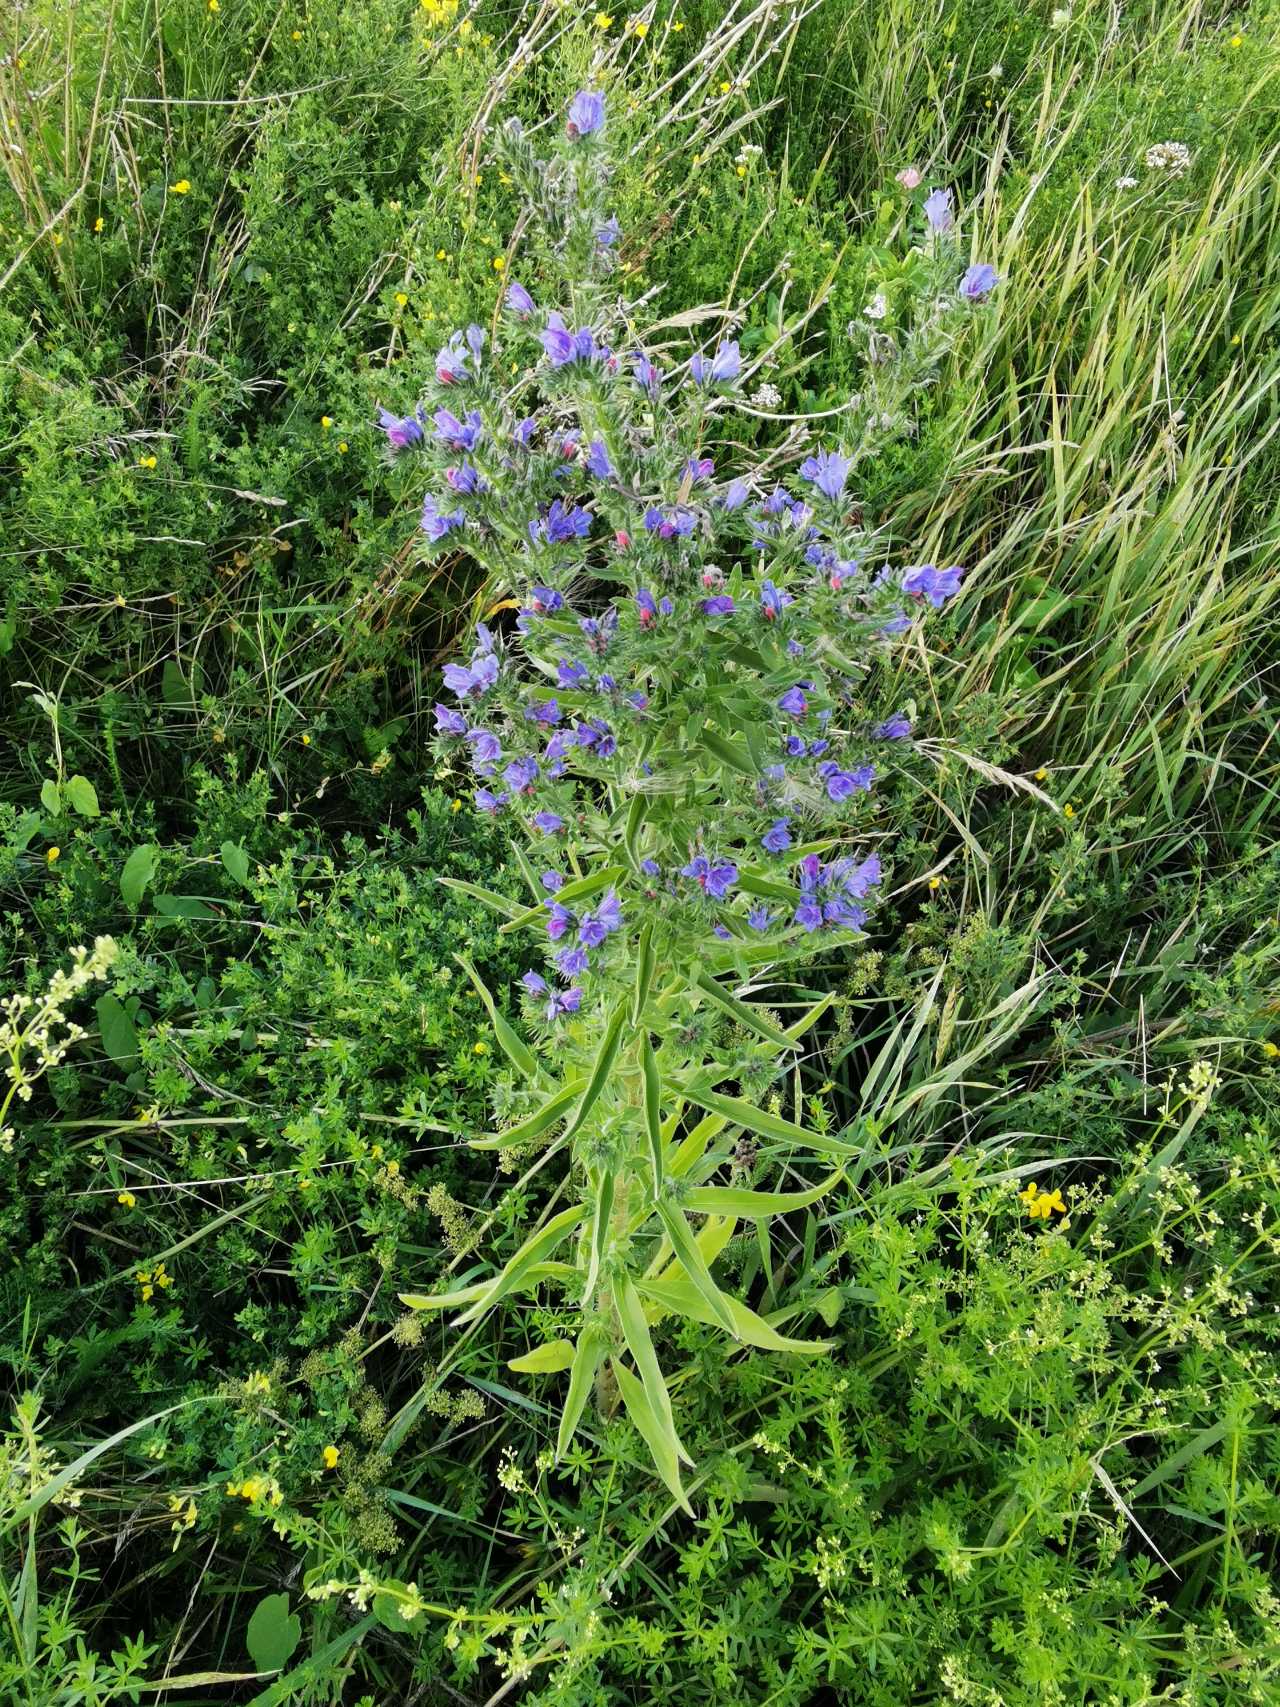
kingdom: Plantae
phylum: Tracheophyta
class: Magnoliopsida
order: Boraginales
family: Boraginaceae
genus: Echium
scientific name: Echium vulgare
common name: Slangehoved
